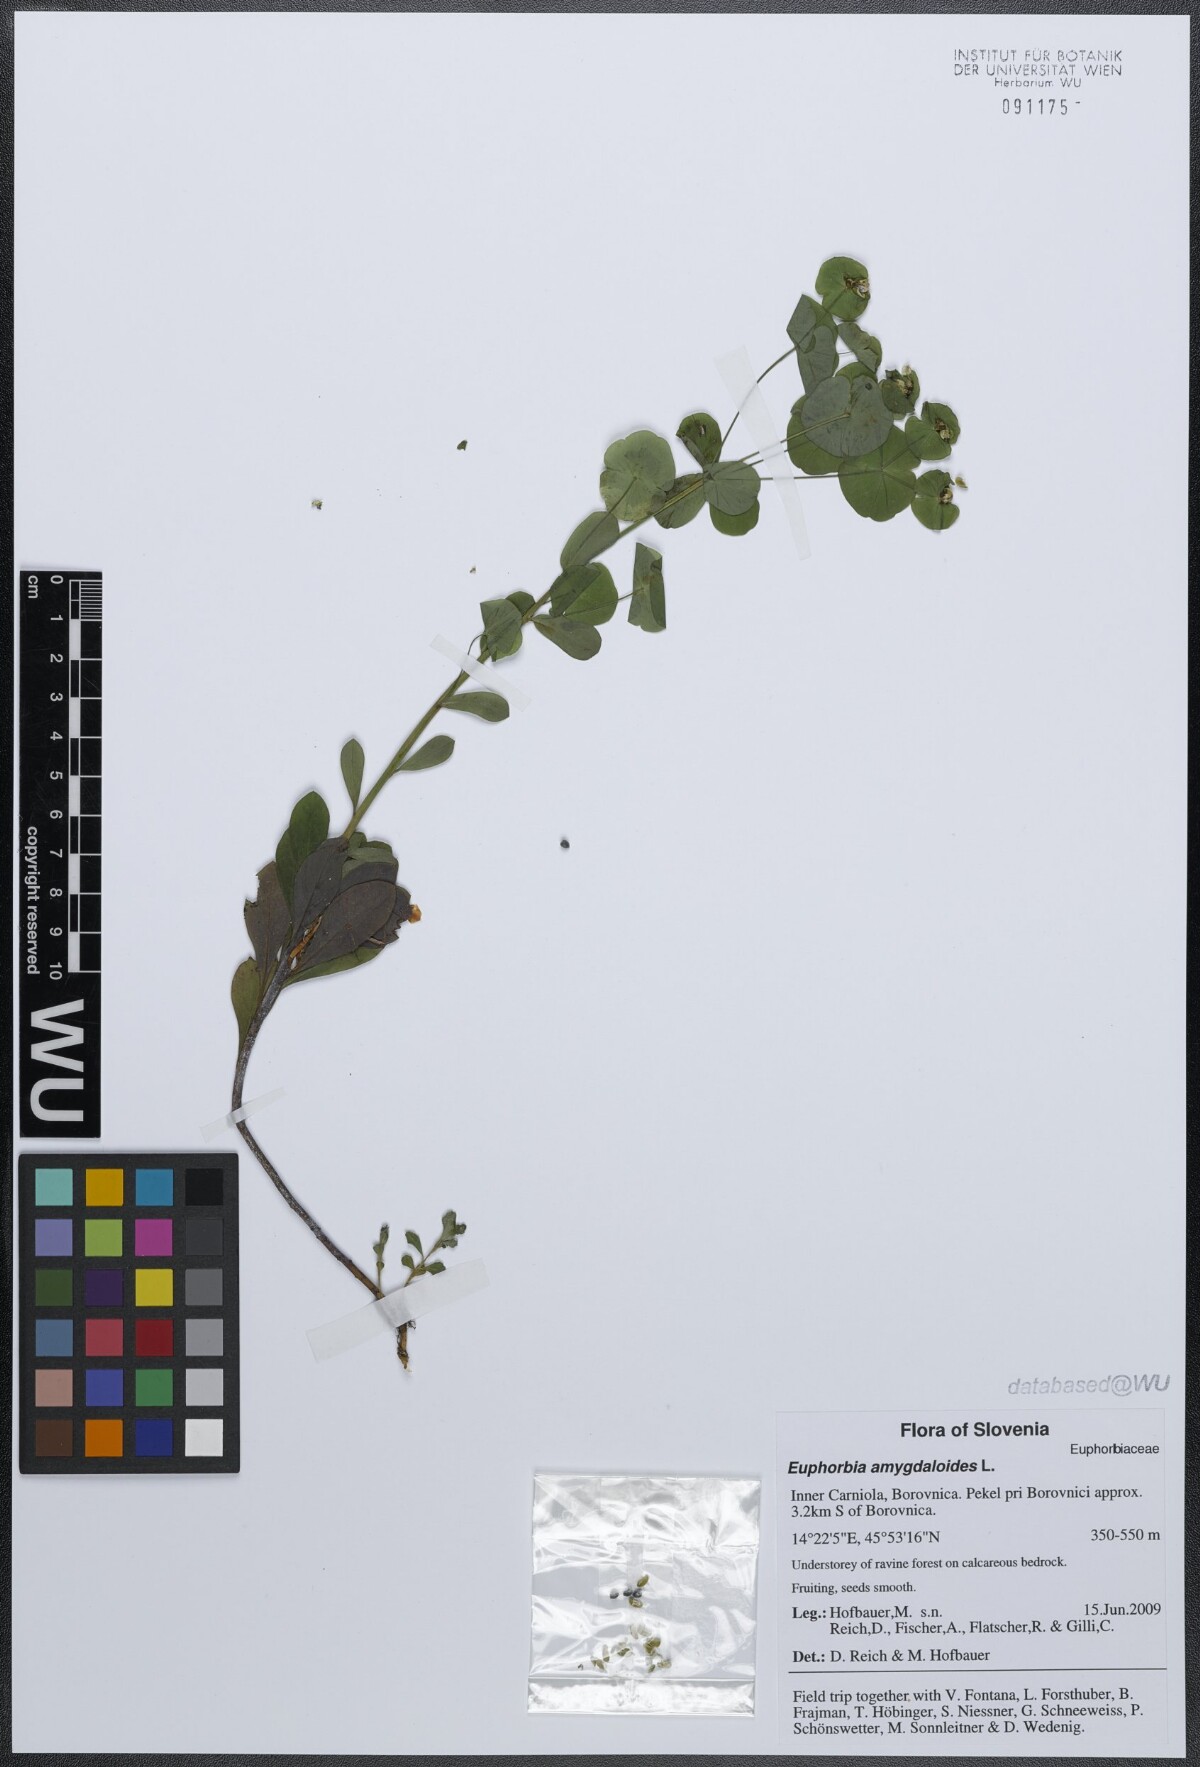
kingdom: Plantae
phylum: Tracheophyta
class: Magnoliopsida
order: Malpighiales
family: Euphorbiaceae
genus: Euphorbia
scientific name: Euphorbia amygdaloides
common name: Wood spurge
